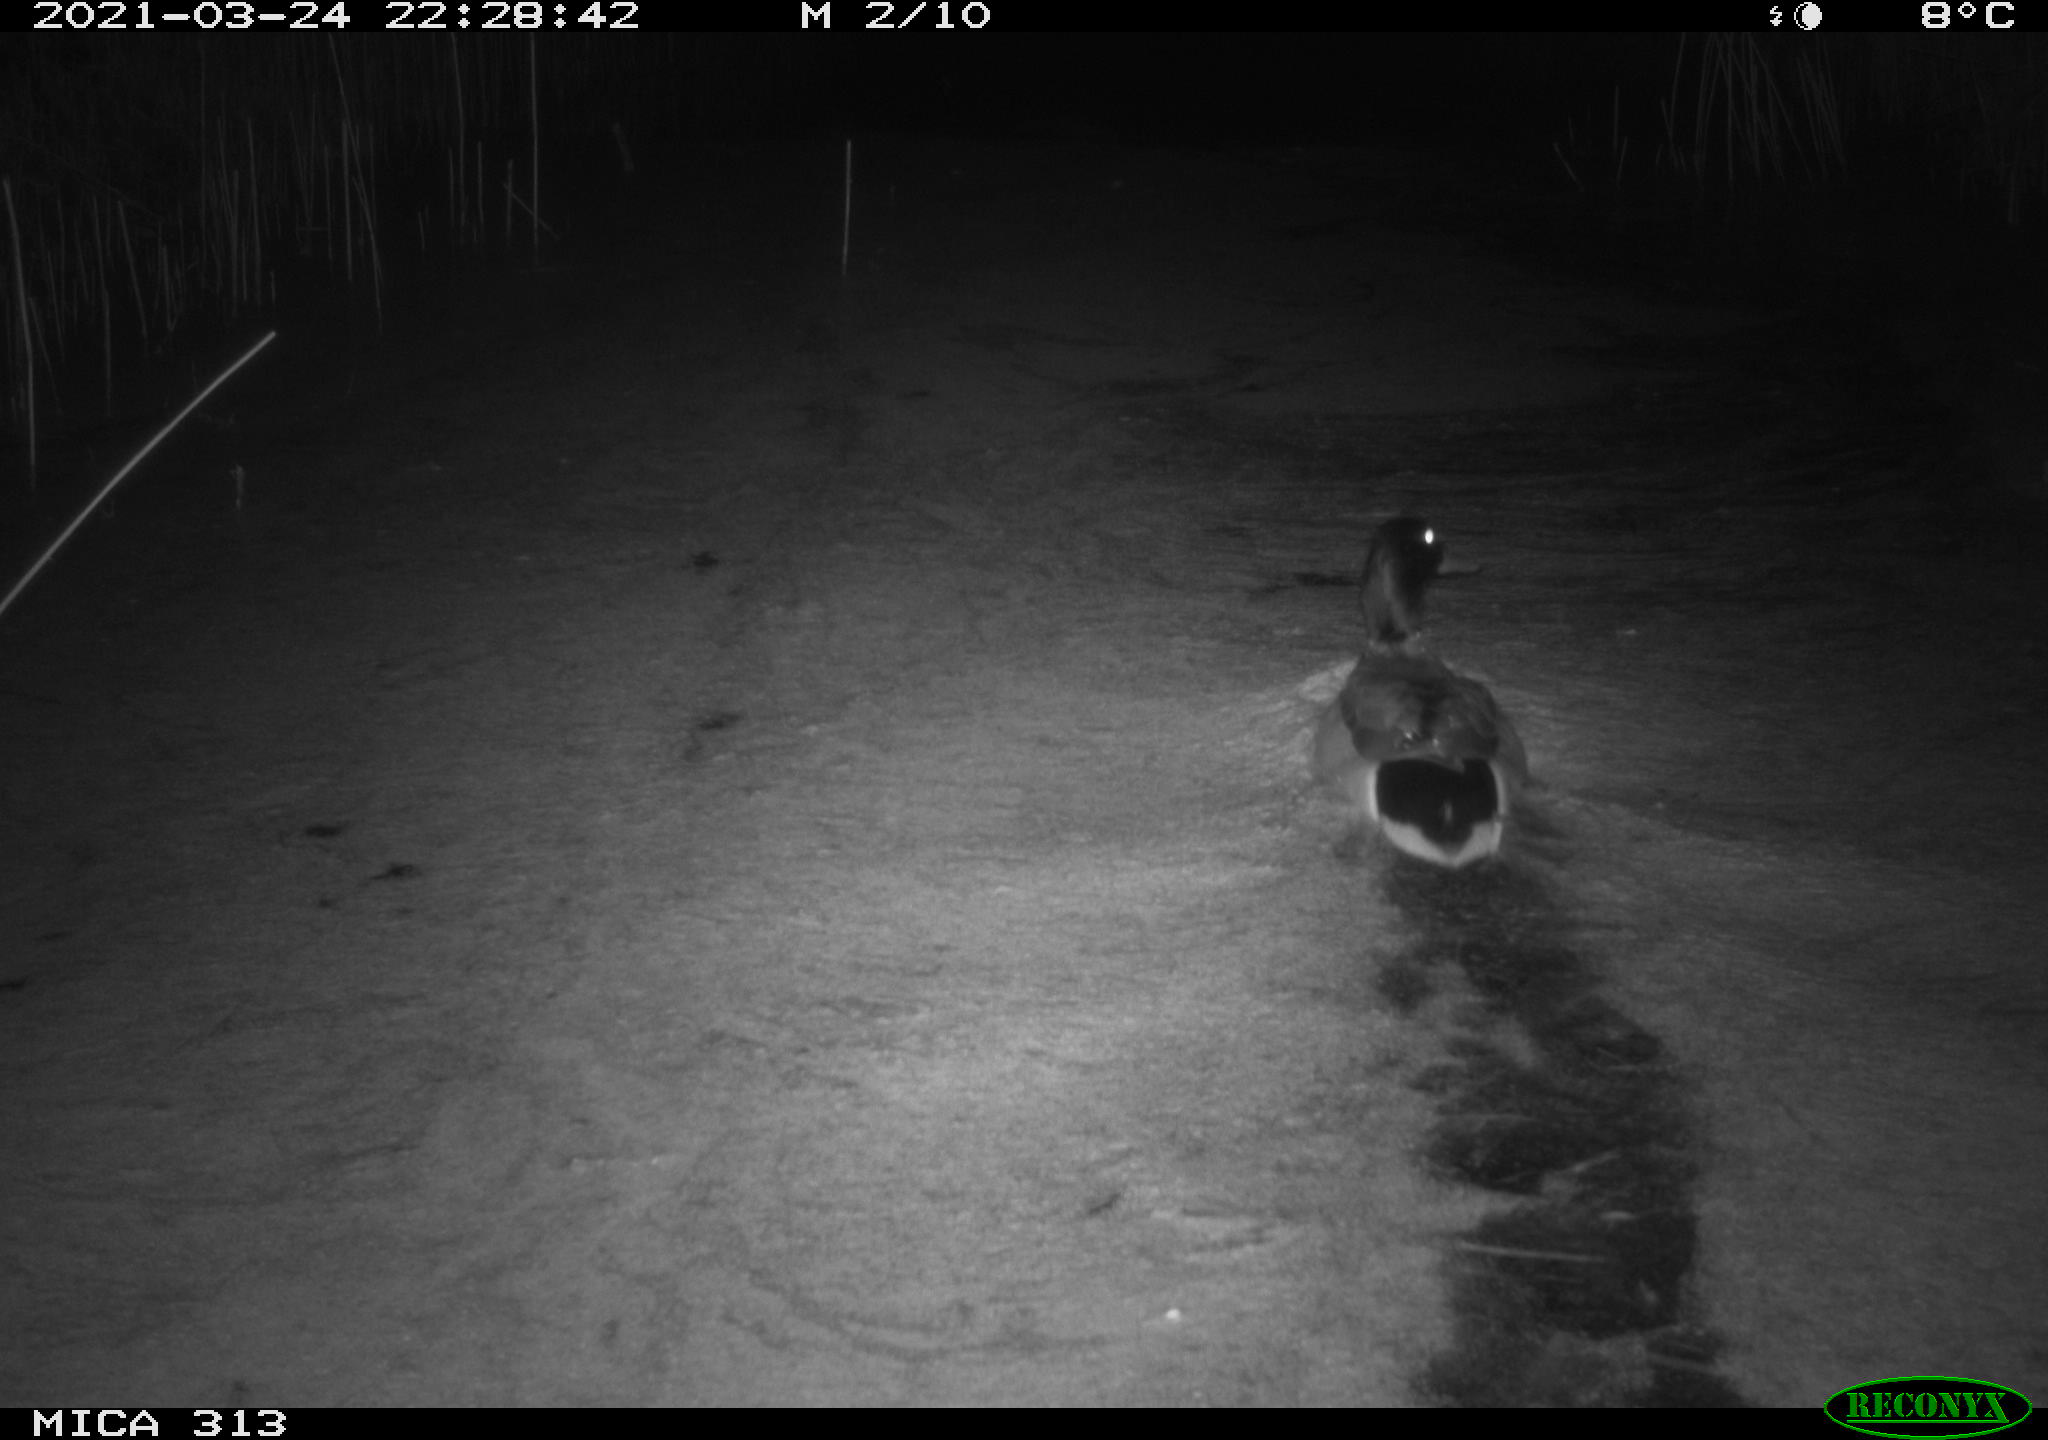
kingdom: Animalia
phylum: Chordata
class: Aves
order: Anseriformes
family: Anatidae
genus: Anas
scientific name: Anas platyrhynchos
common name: Mallard
